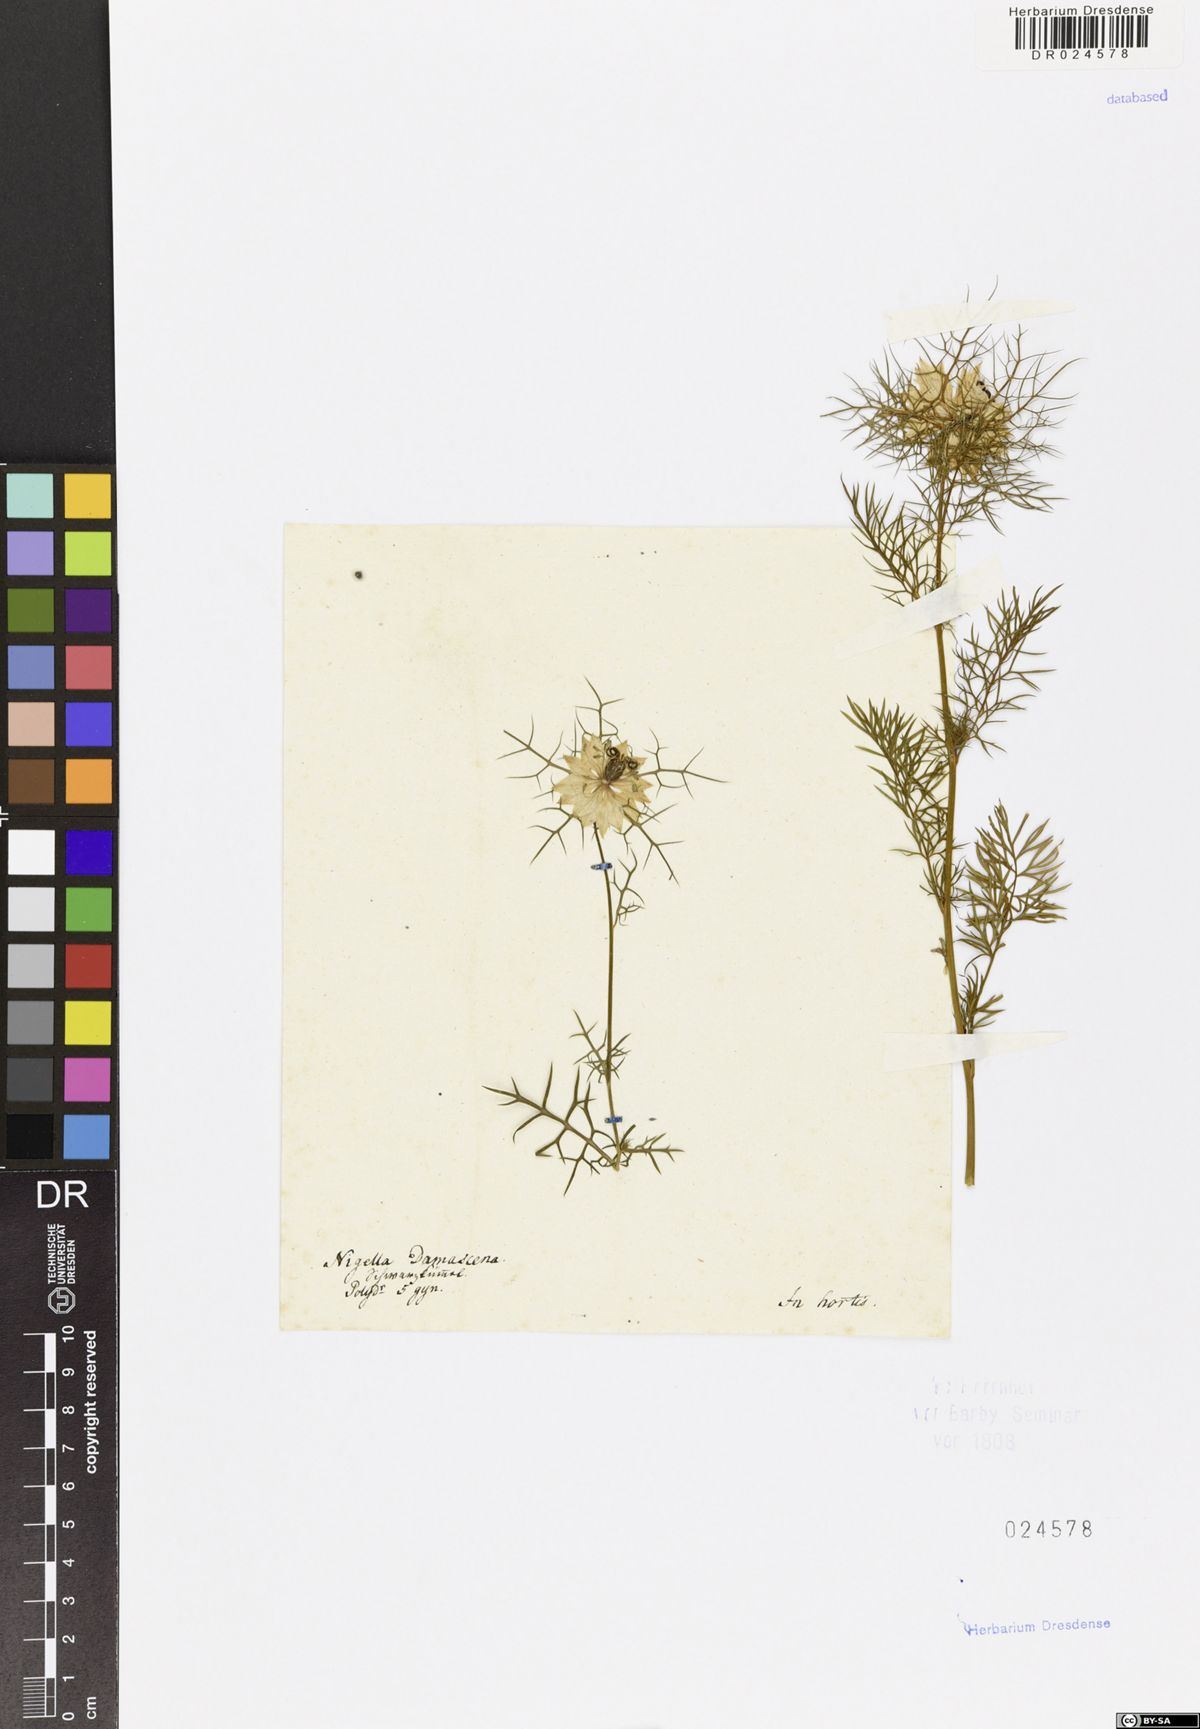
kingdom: Plantae
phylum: Tracheophyta
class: Magnoliopsida
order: Ranunculales
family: Ranunculaceae
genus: Nigella
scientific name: Nigella damascena
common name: Love-in-a-mist
